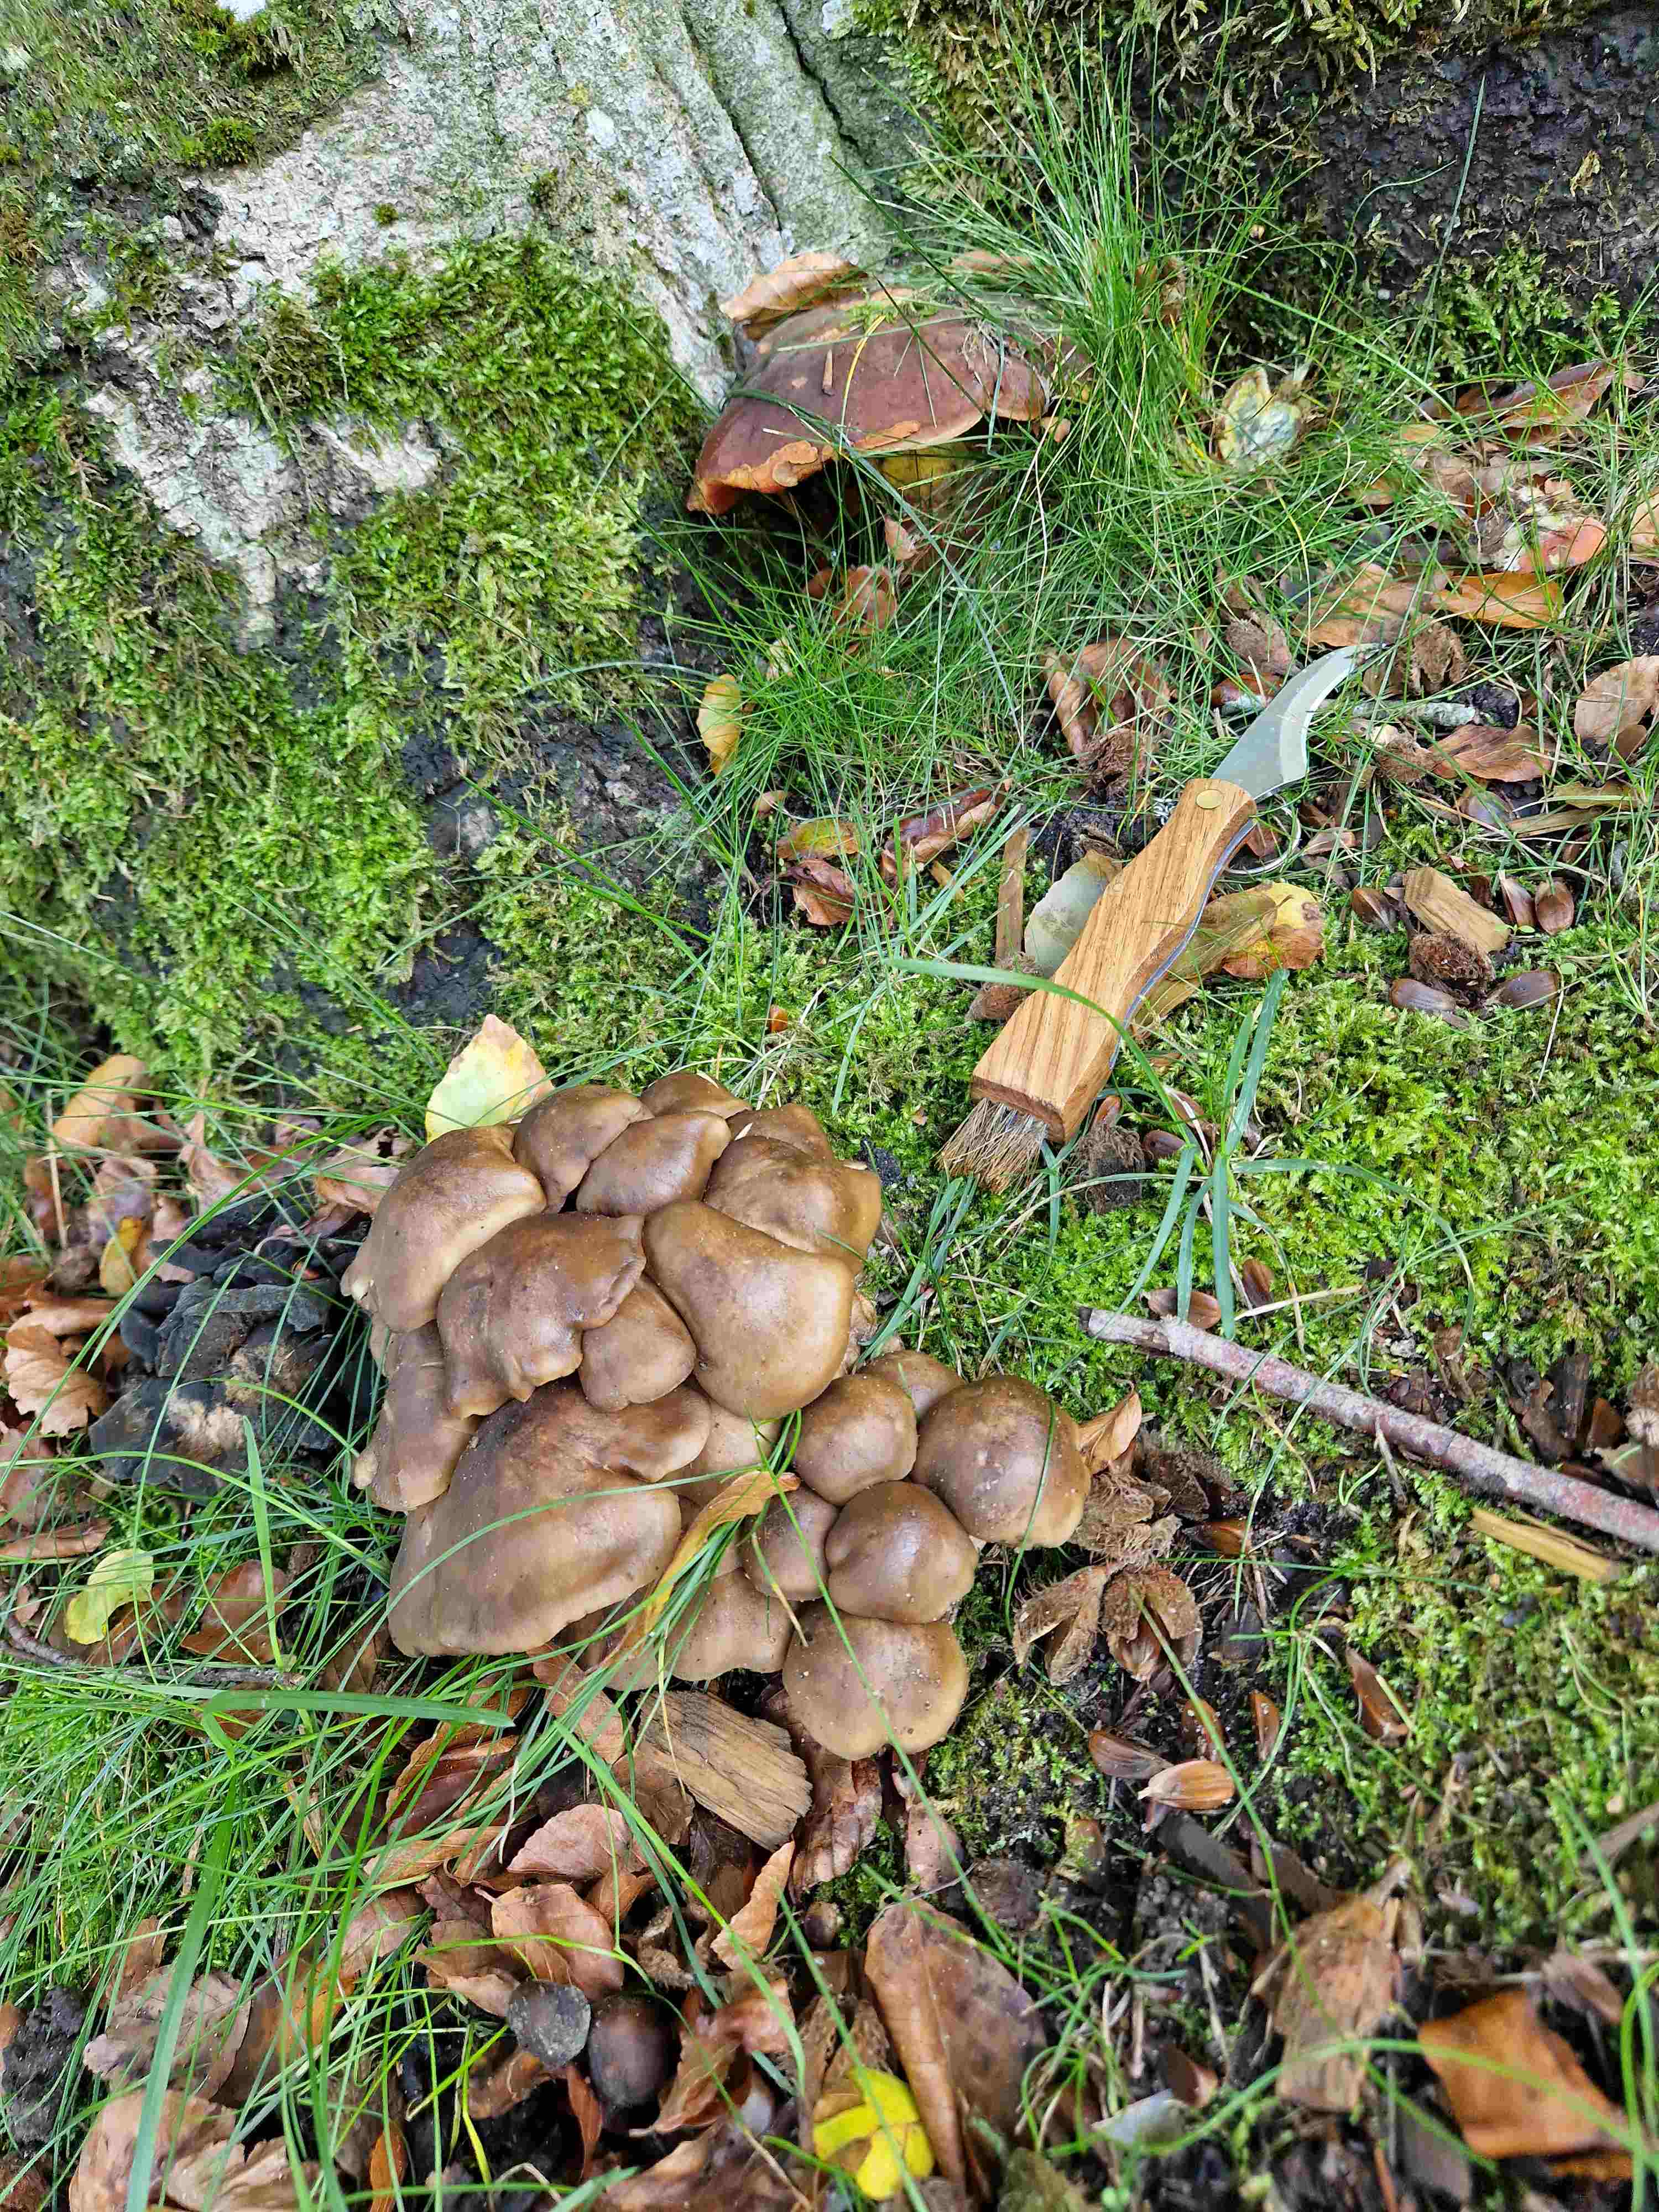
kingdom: Fungi
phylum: Basidiomycota
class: Agaricomycetes
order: Agaricales
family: Lyophyllaceae
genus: Lyophyllum
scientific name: Lyophyllum
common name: gråblad
